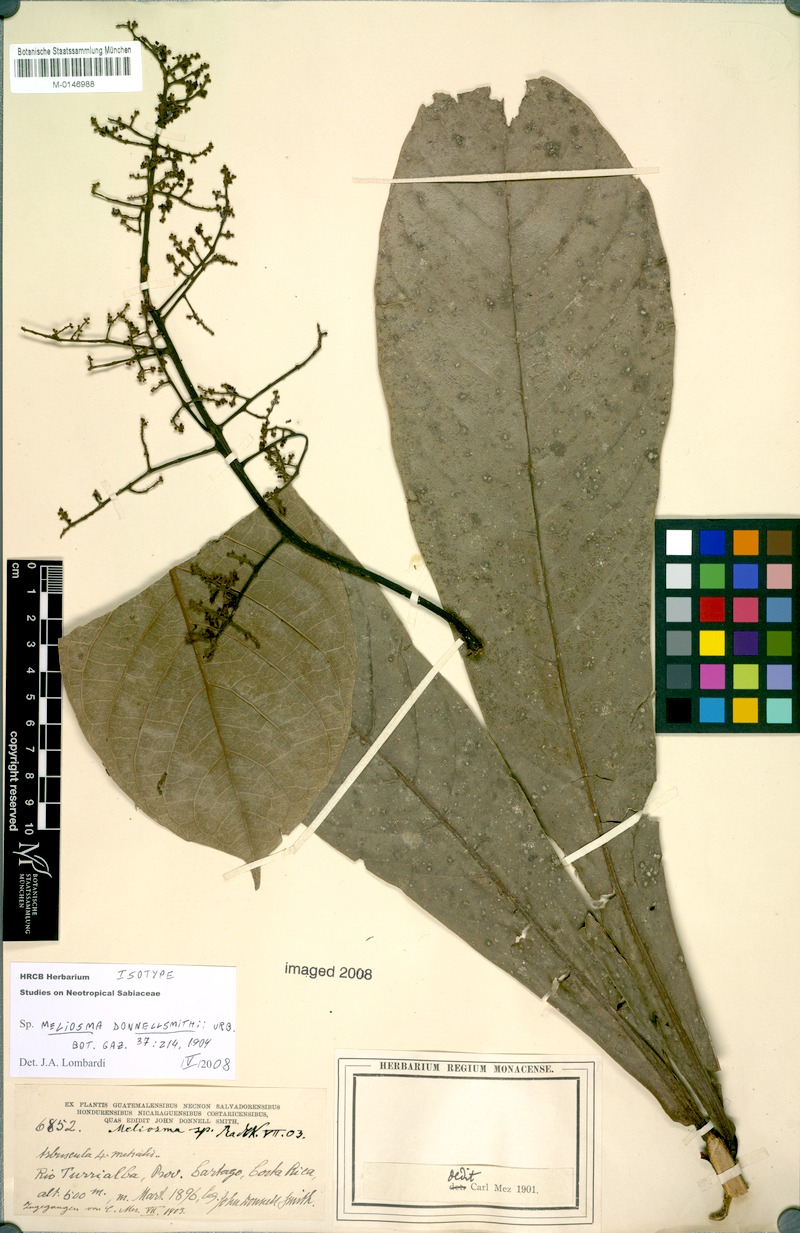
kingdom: Plantae
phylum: Tracheophyta
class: Magnoliopsida
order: Proteales
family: Sabiaceae
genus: Meliosma
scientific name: Meliosma donnellsmithii
